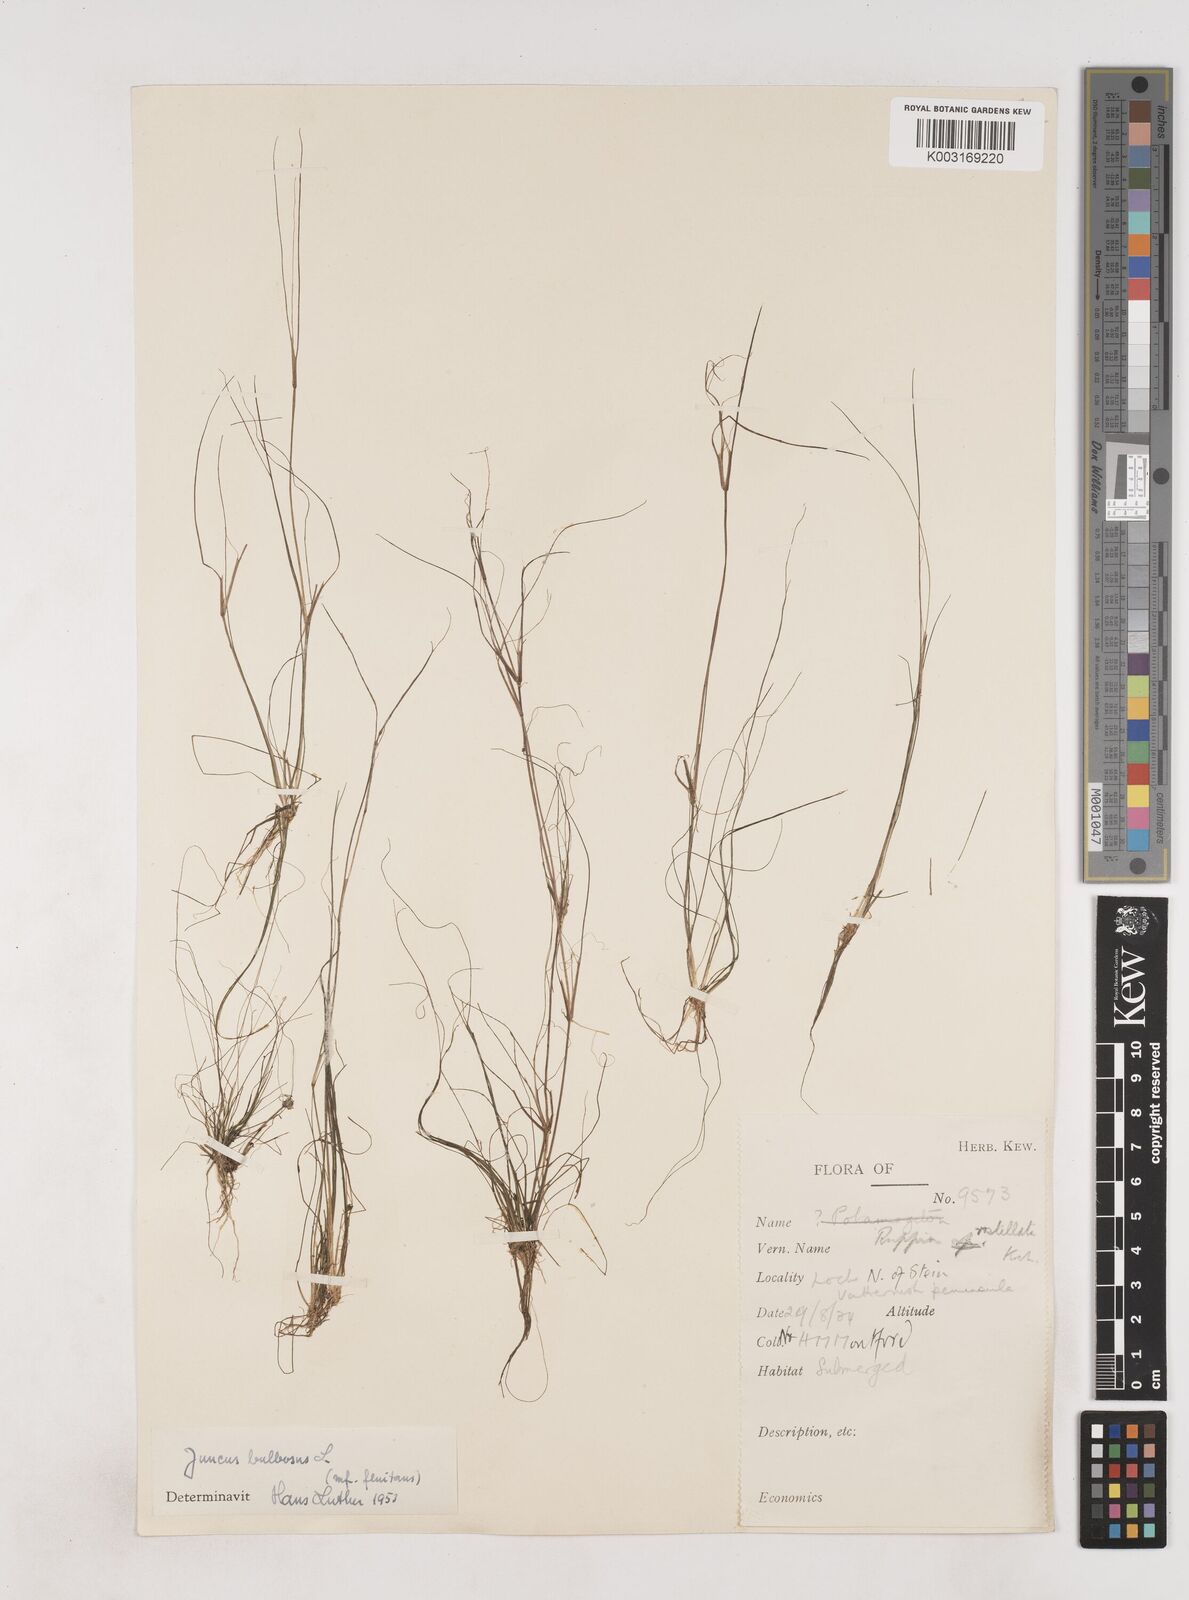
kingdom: Plantae
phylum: Tracheophyta
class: Liliopsida
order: Poales
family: Juncaceae
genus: Juncus
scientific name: Juncus bulbosus
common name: Bulbous rush
